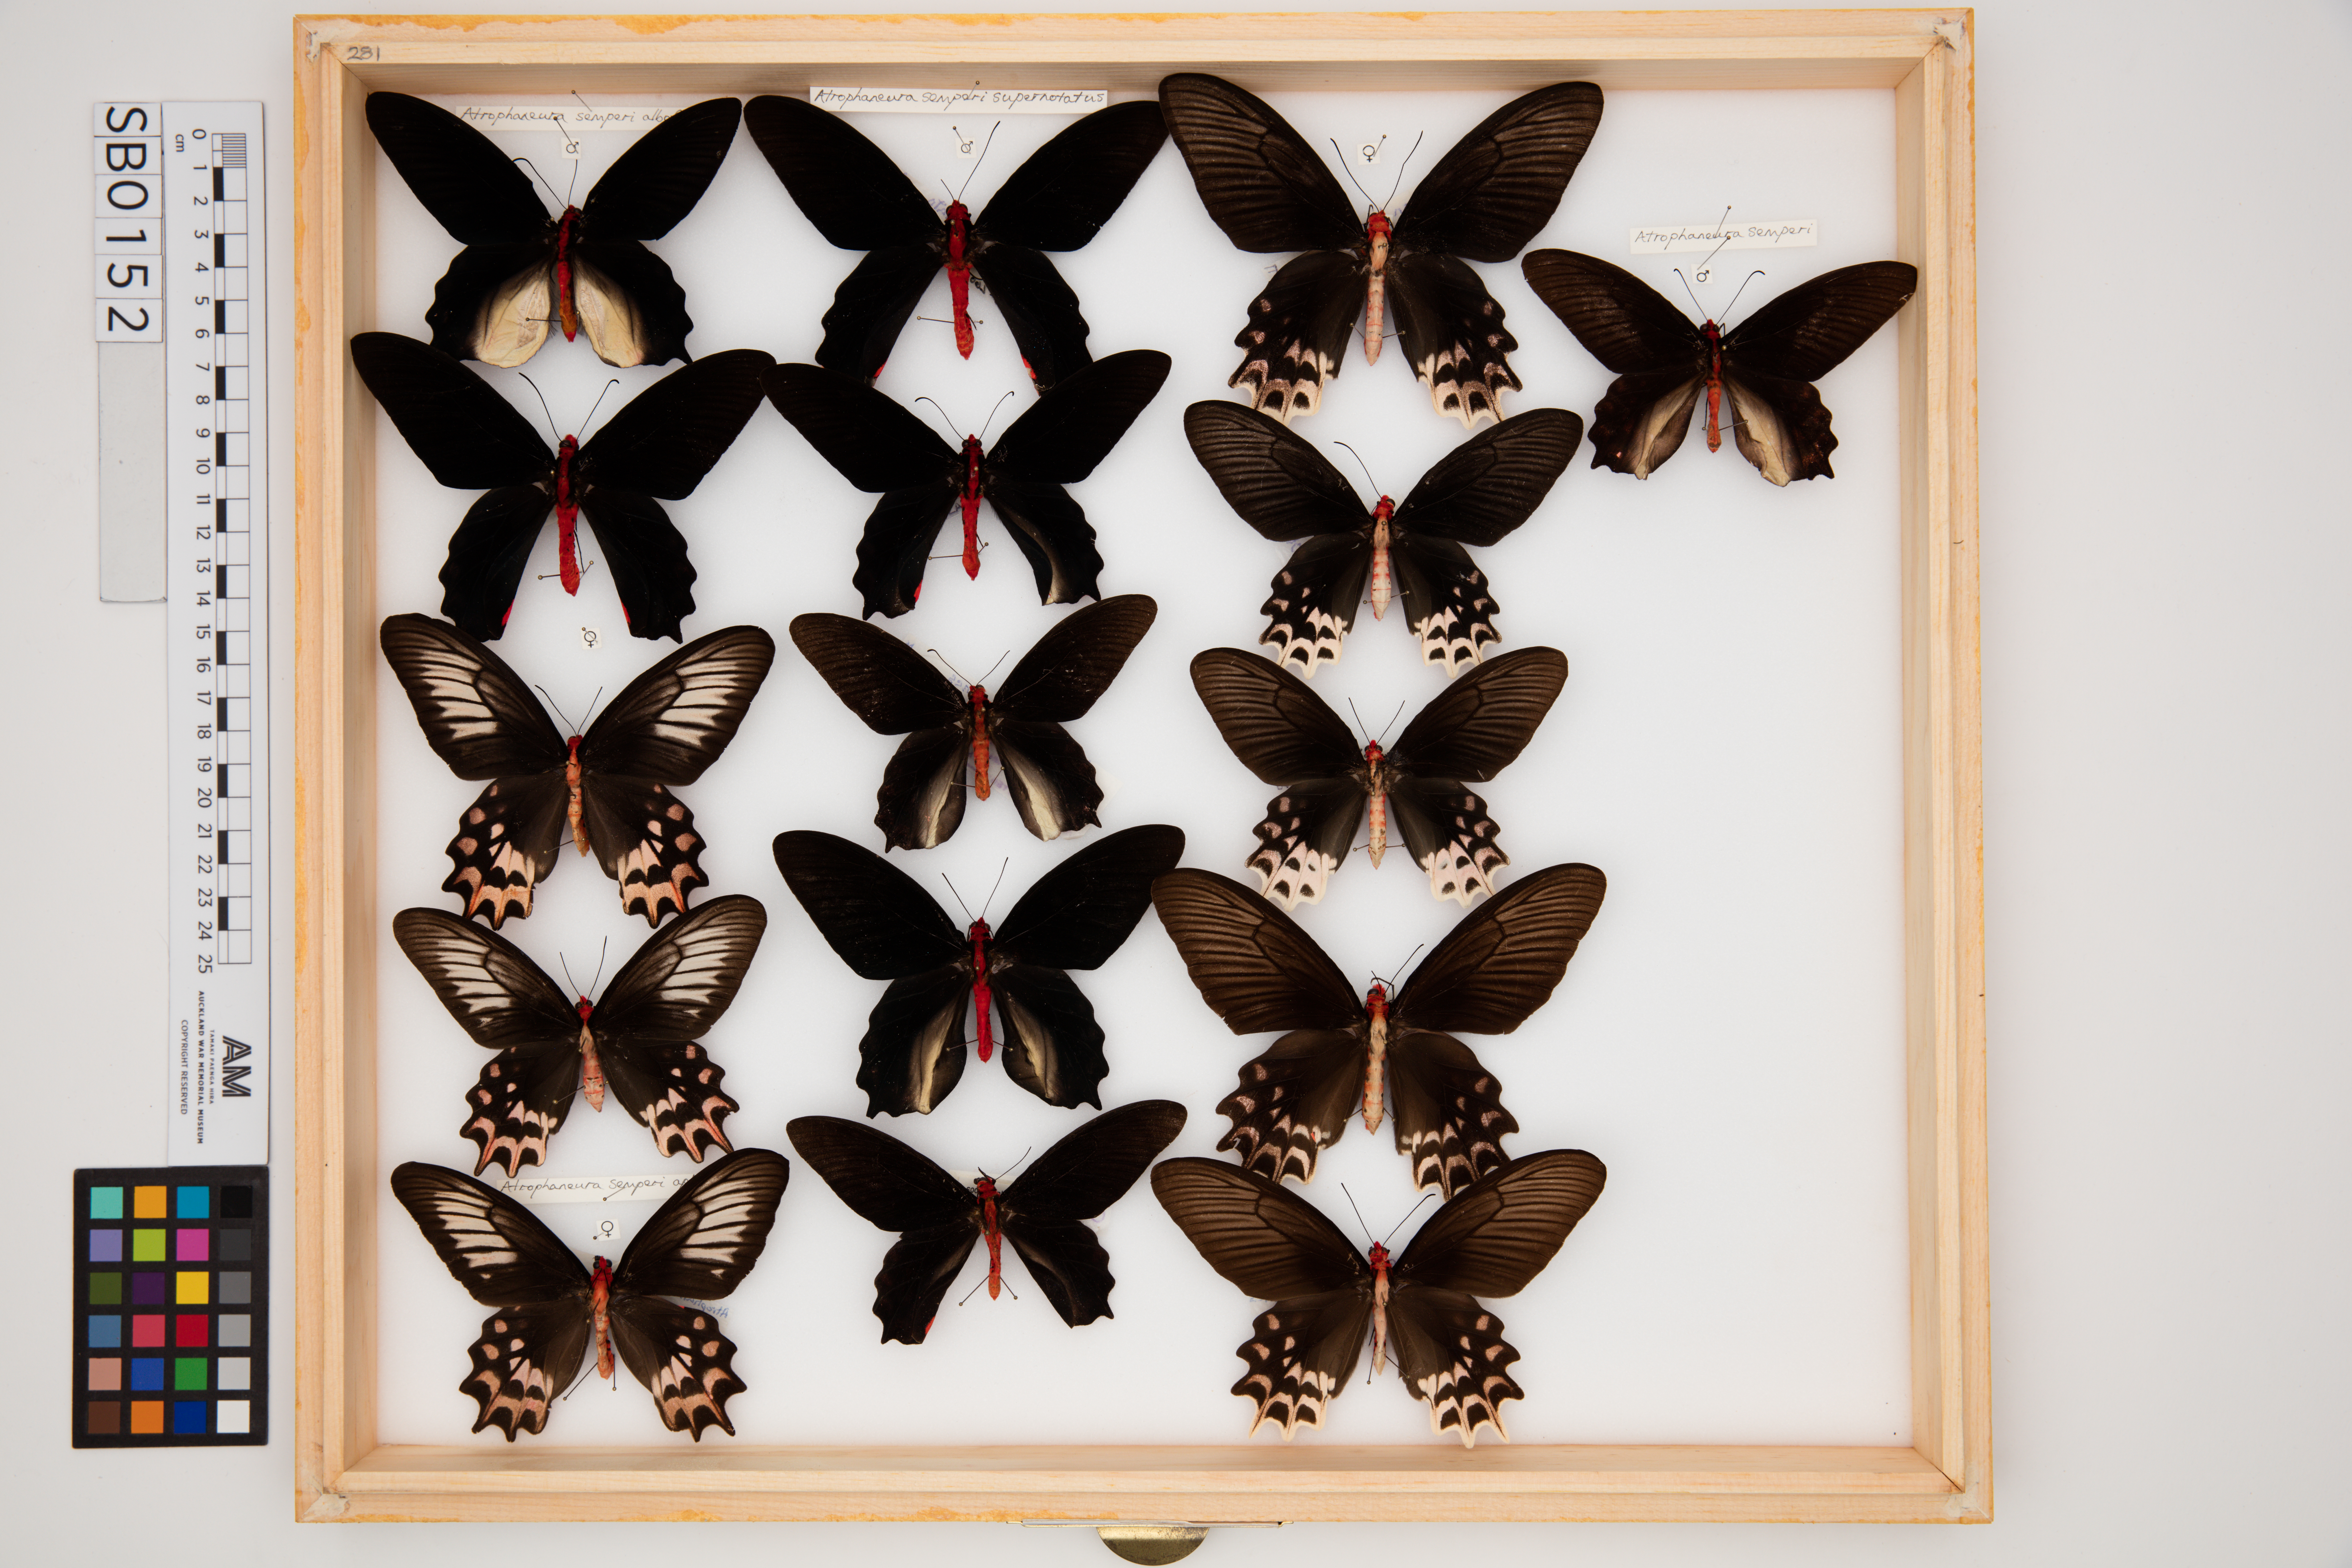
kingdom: Animalia
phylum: Arthropoda
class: Insecta
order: Lepidoptera
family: Papilionidae
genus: Atrophaneura
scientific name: Atrophaneura semperi
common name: Red-bodied batwing swallowtail
